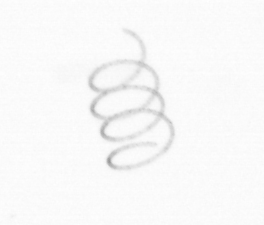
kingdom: Chromista
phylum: Ochrophyta
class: Bacillariophyceae
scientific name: Bacillariophyceae
